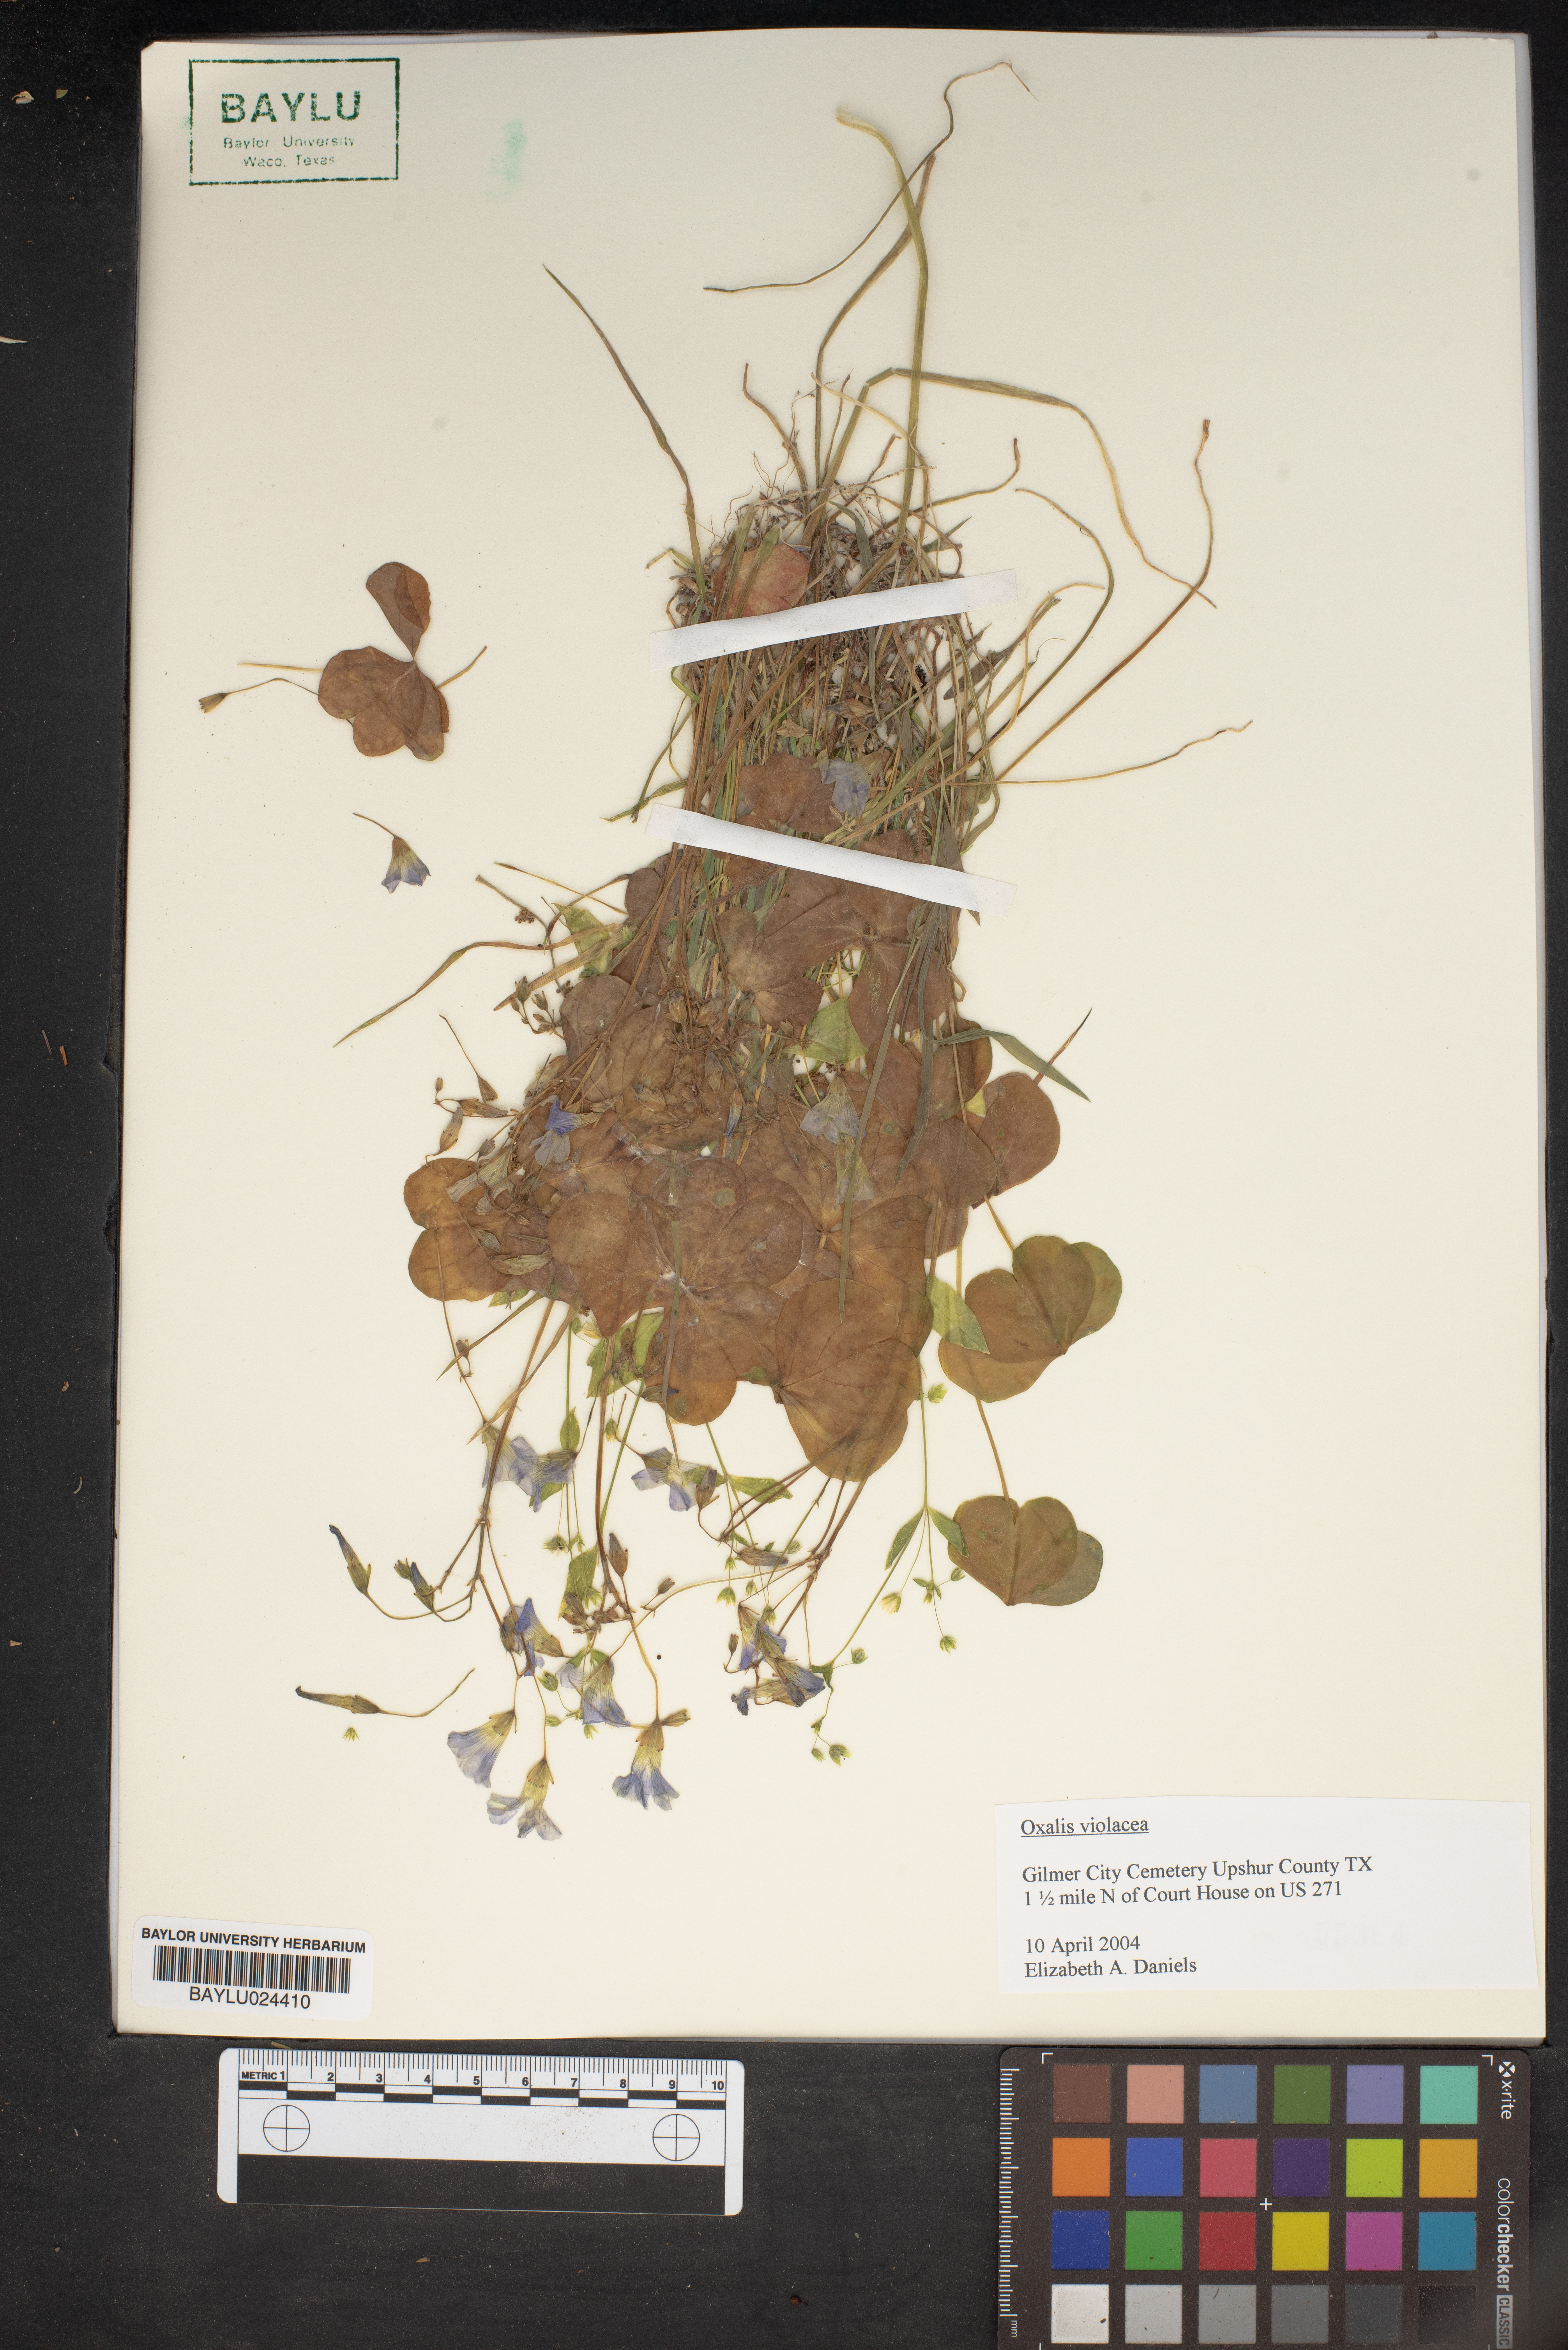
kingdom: Plantae
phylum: Tracheophyta
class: Magnoliopsida
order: Oxalidales
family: Oxalidaceae
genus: Oxalis
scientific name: Oxalis violacea
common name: Violet wood-sorrel
